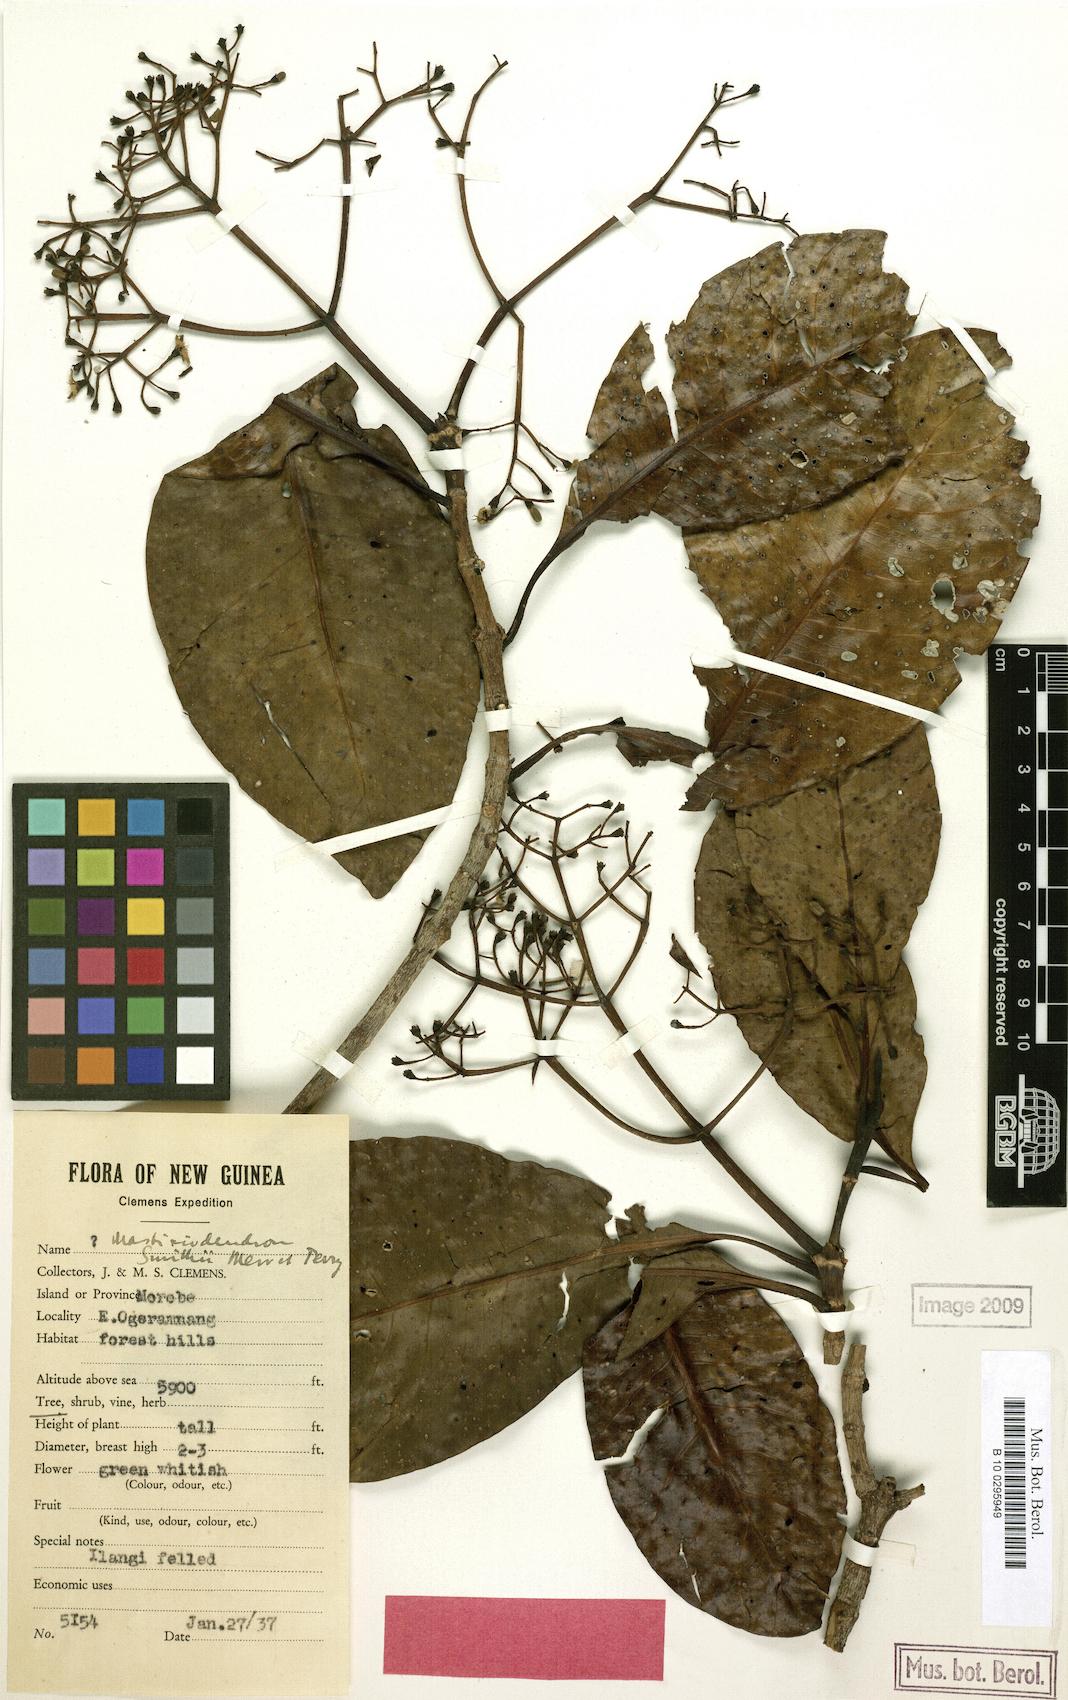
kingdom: Plantae
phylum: Tracheophyta
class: Magnoliopsida
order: Gentianales
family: Rubiaceae
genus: Mastixiodendron
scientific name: Mastixiodendron smithii
